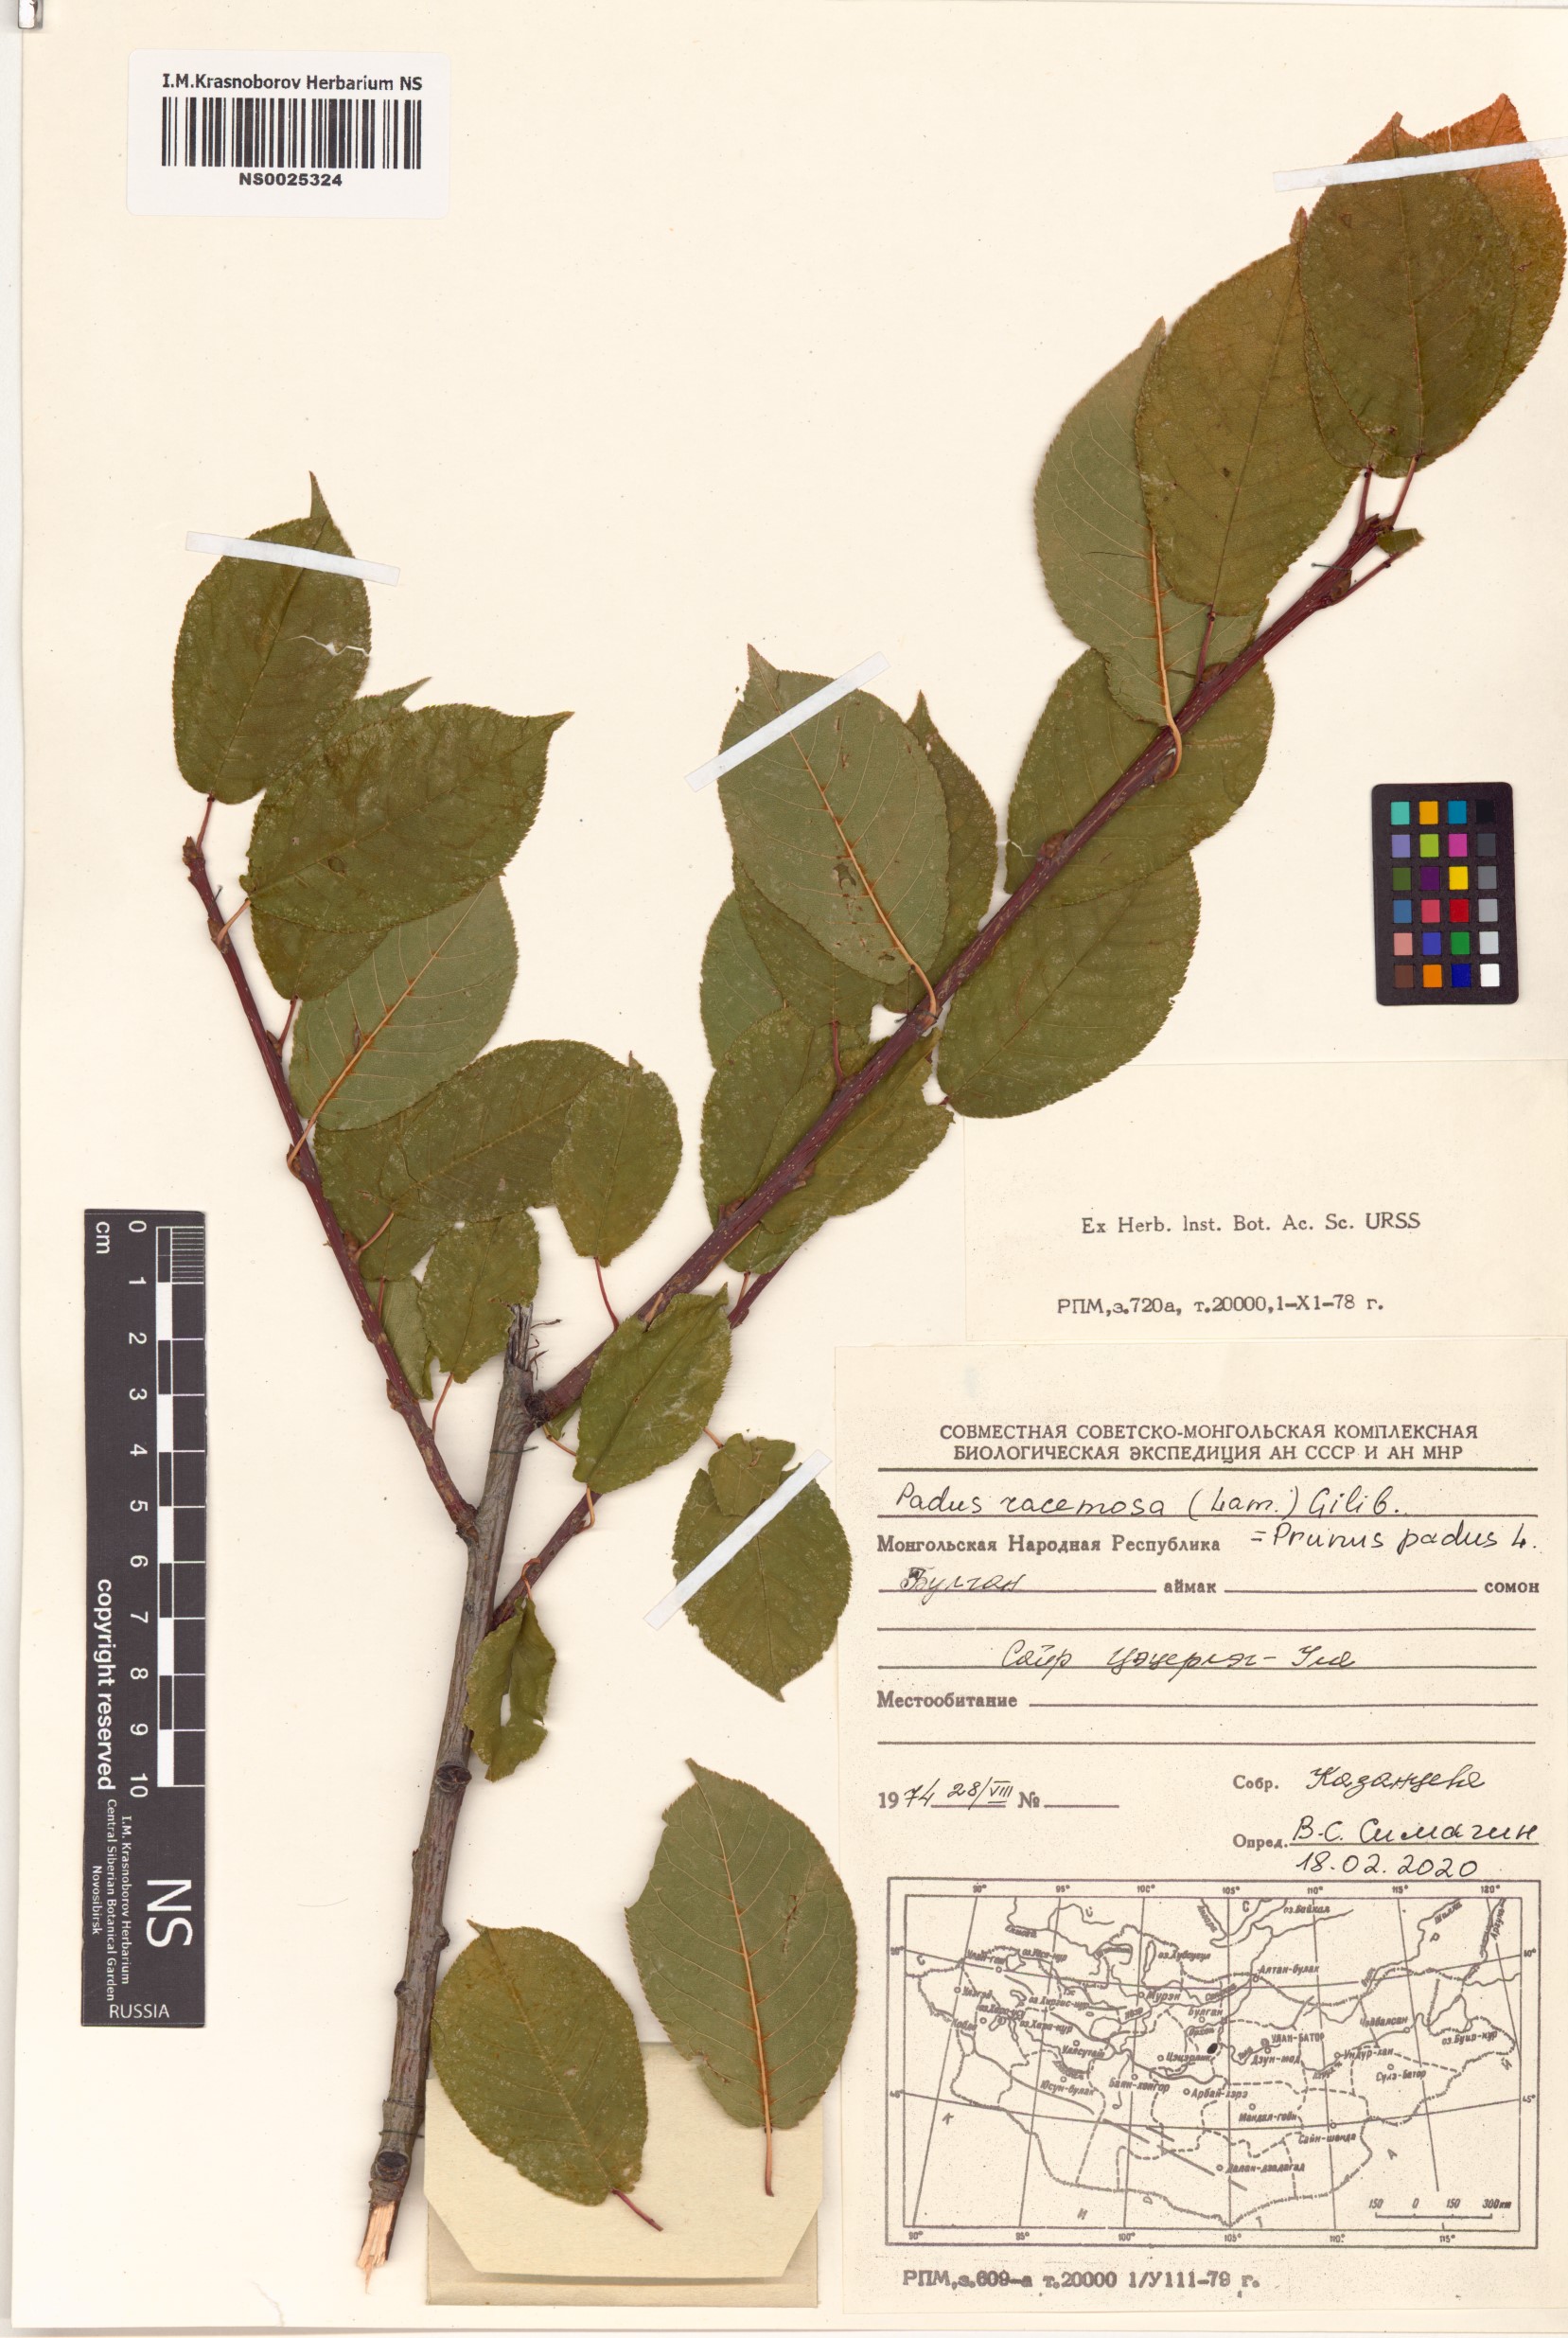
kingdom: Plantae
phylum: Tracheophyta
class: Magnoliopsida
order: Rosales
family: Rosaceae
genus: Prunus
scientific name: Prunus padus
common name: Bird cherry
